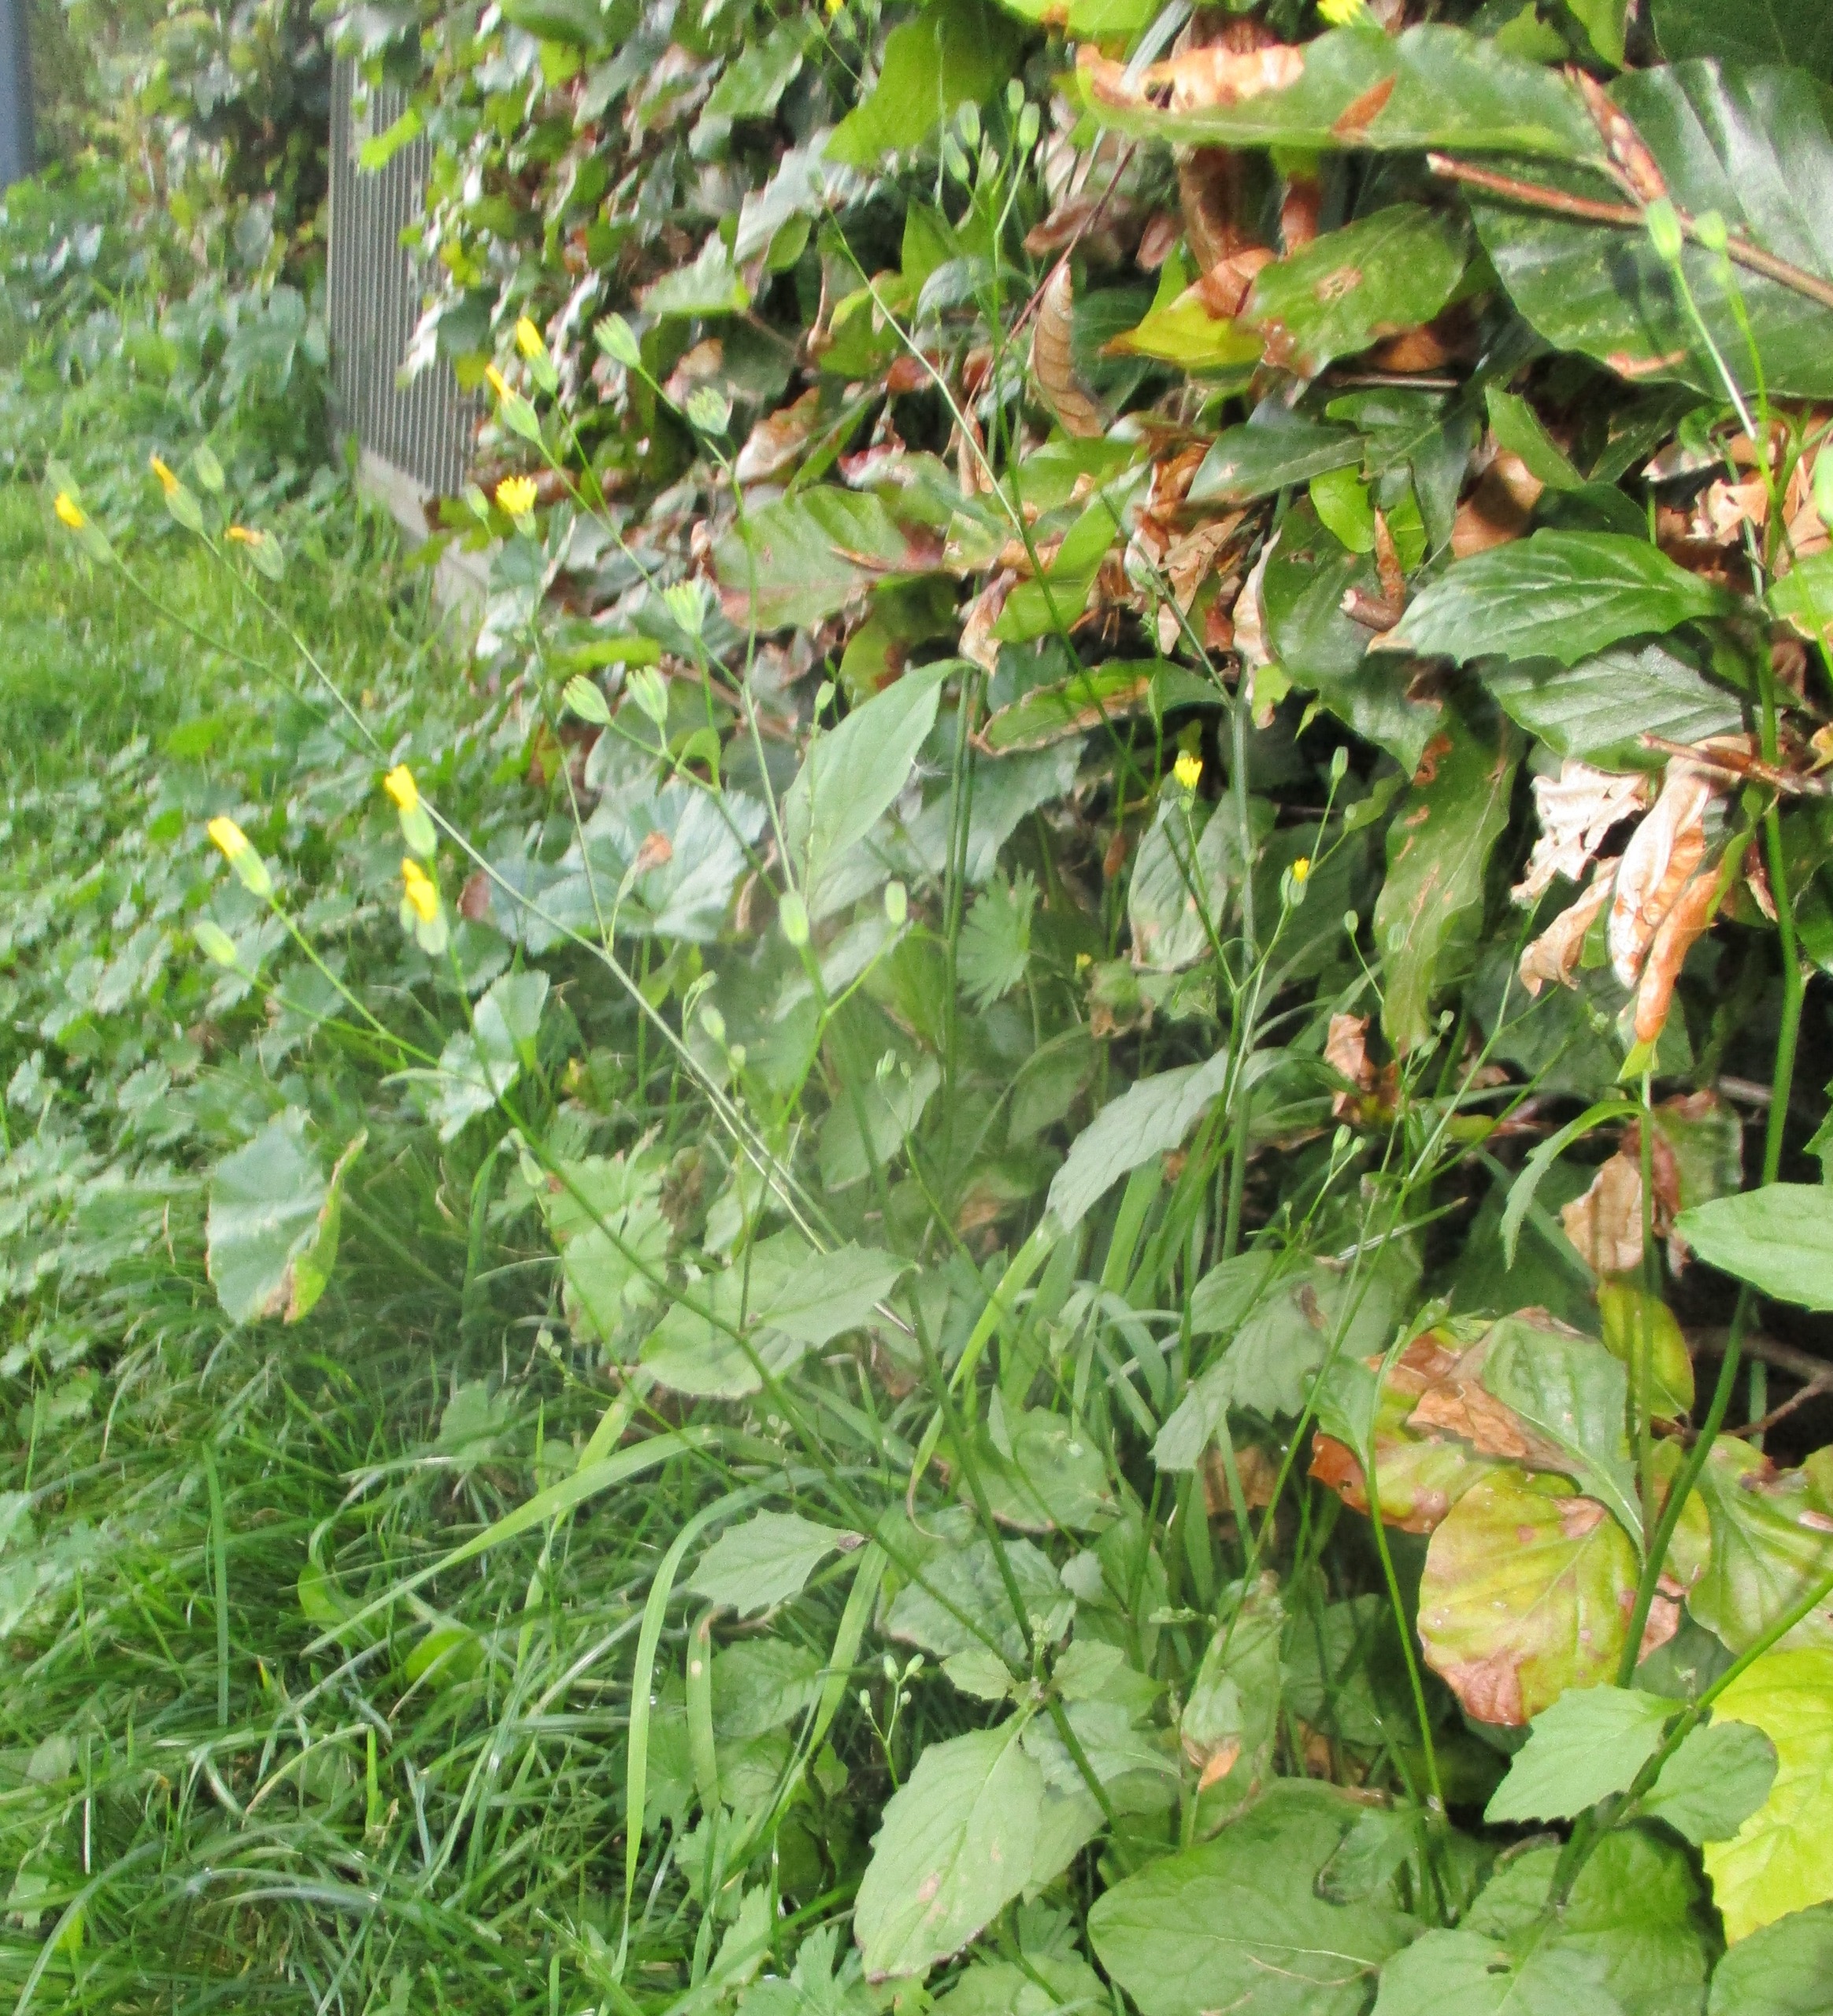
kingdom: Plantae
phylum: Tracheophyta
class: Magnoliopsida
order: Asterales
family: Asteraceae
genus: Lapsana
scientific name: Lapsana communis
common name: Haremad
